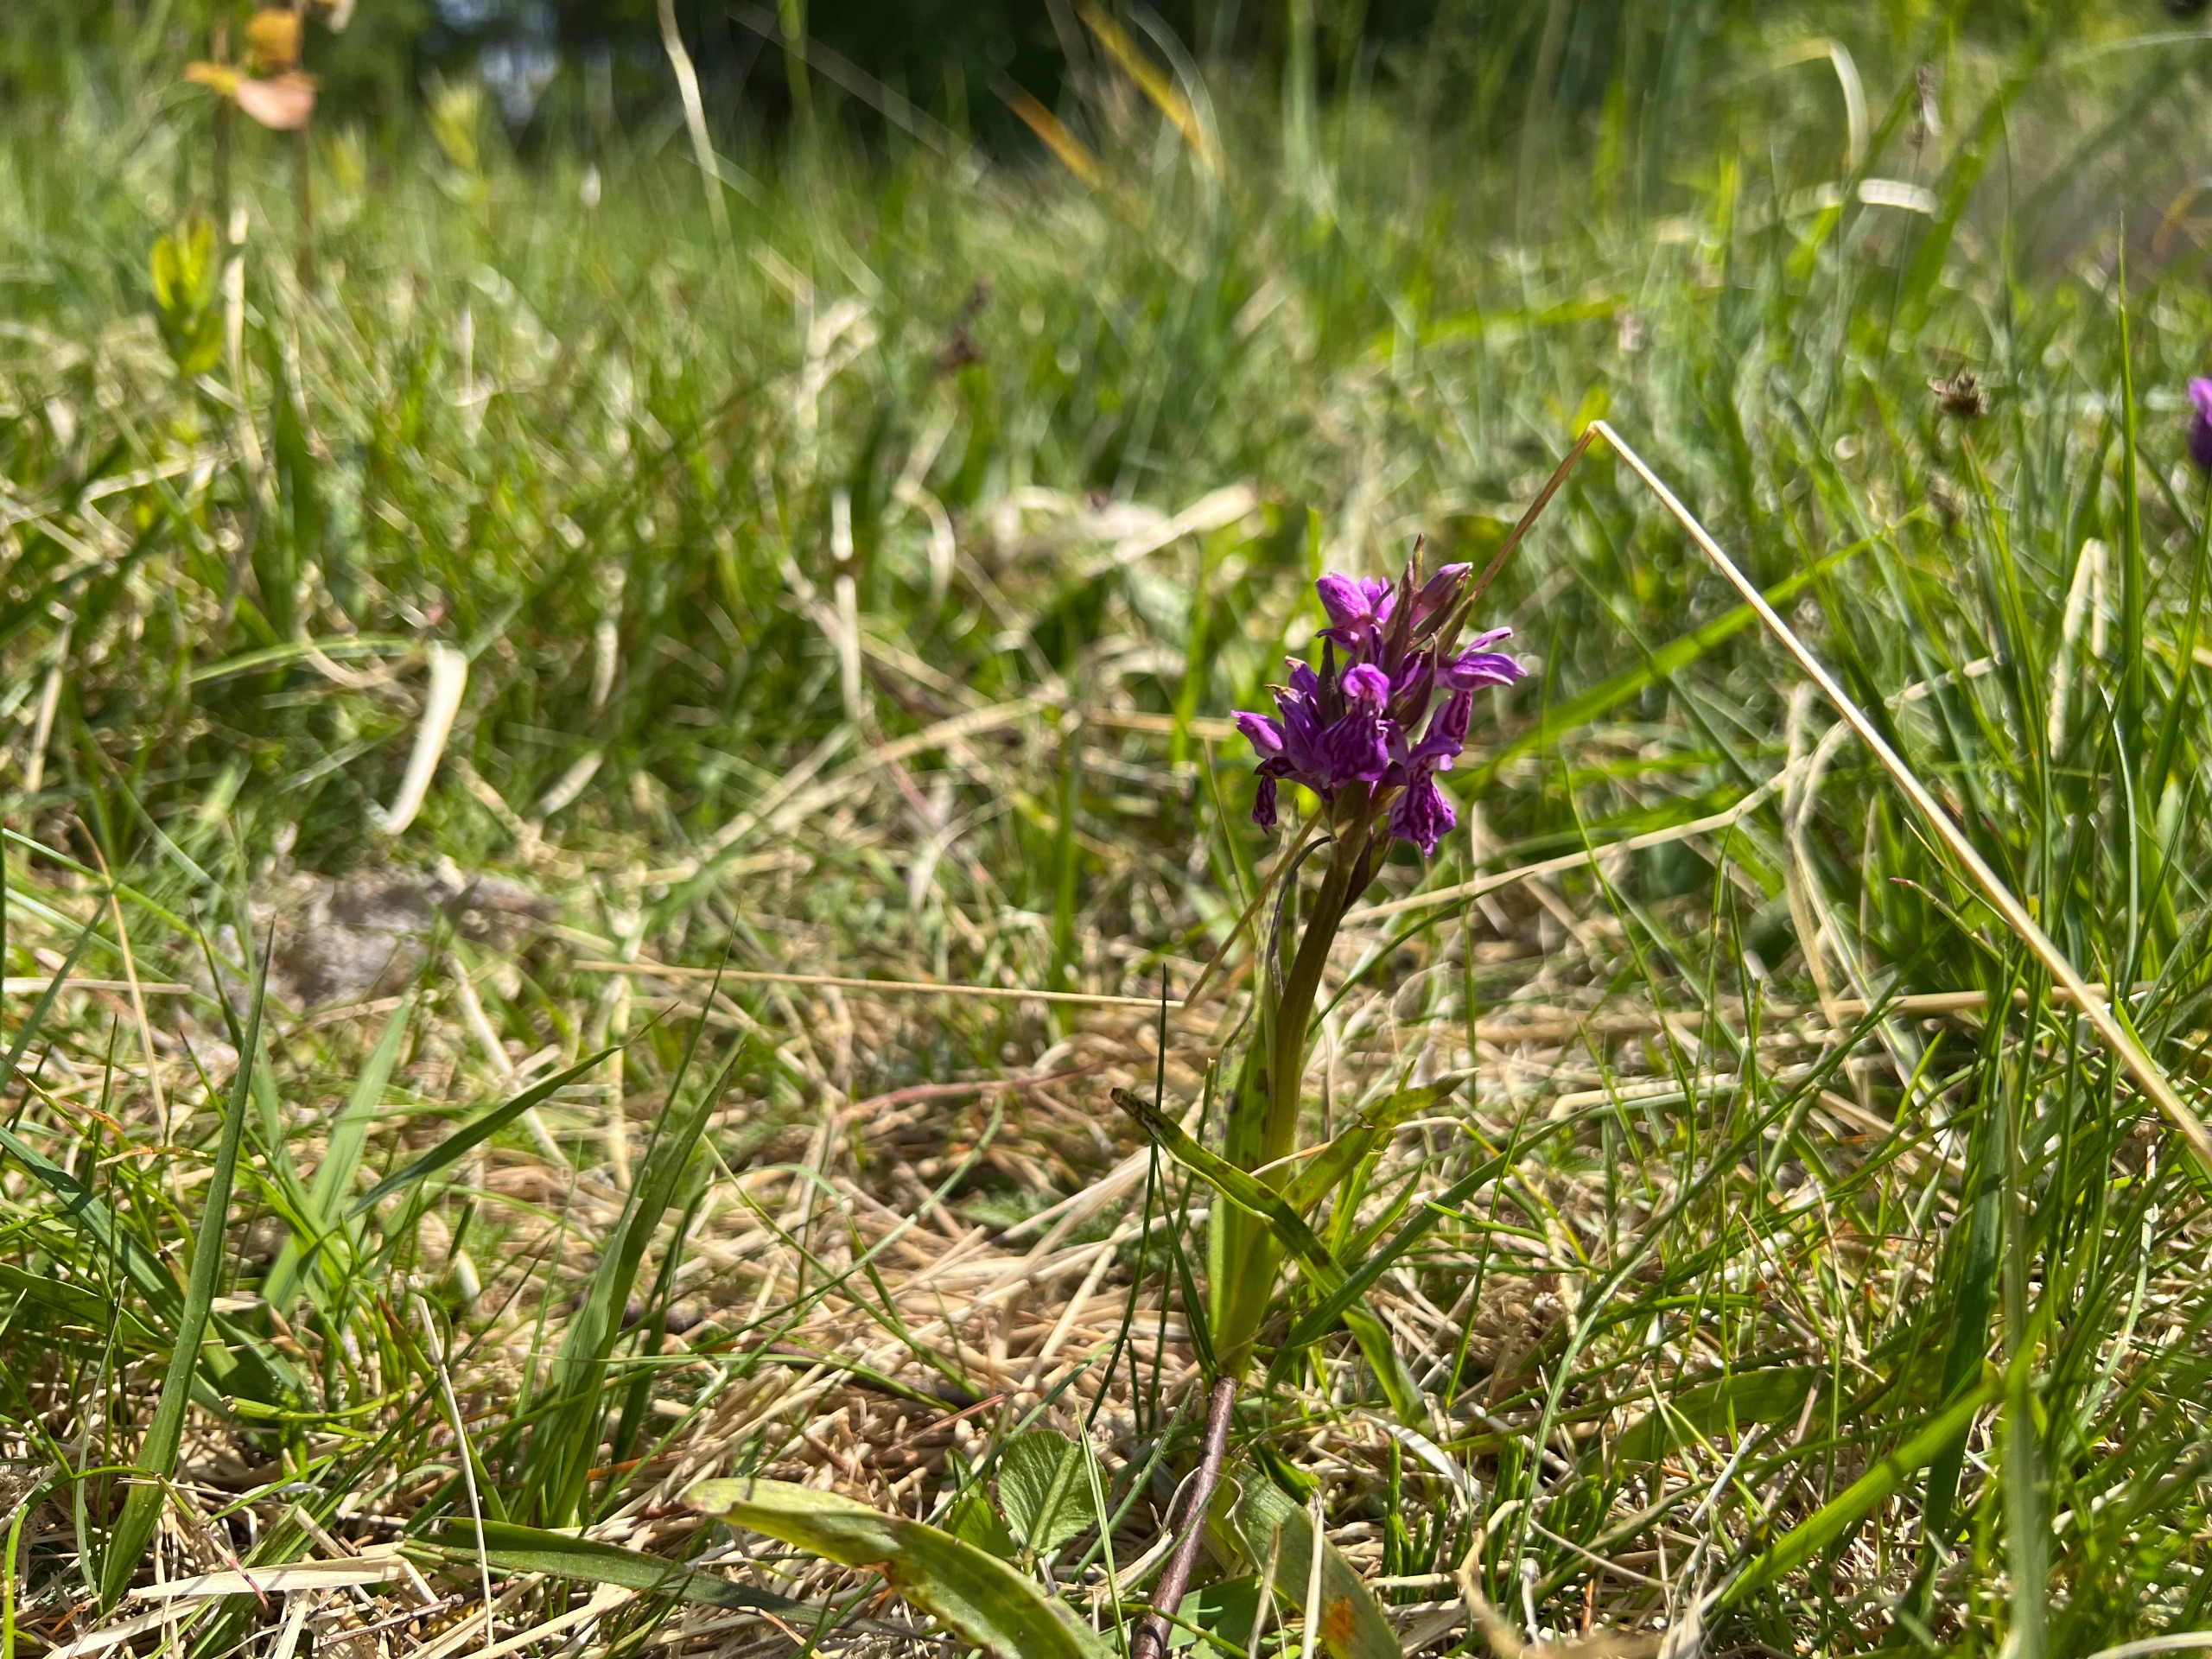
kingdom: Plantae
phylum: Tracheophyta
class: Liliopsida
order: Asparagales
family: Orchidaceae
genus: Dactylorhiza
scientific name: Dactylorhiza majalis
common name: Maj-gøgeurt
